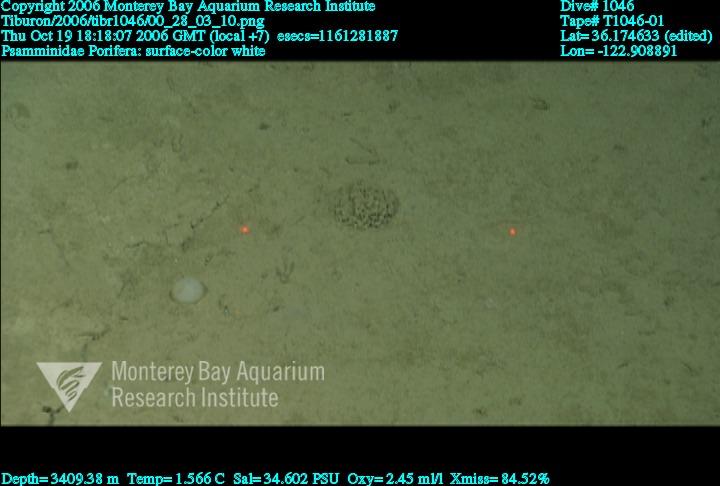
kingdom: Animalia
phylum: Porifera
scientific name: Porifera
